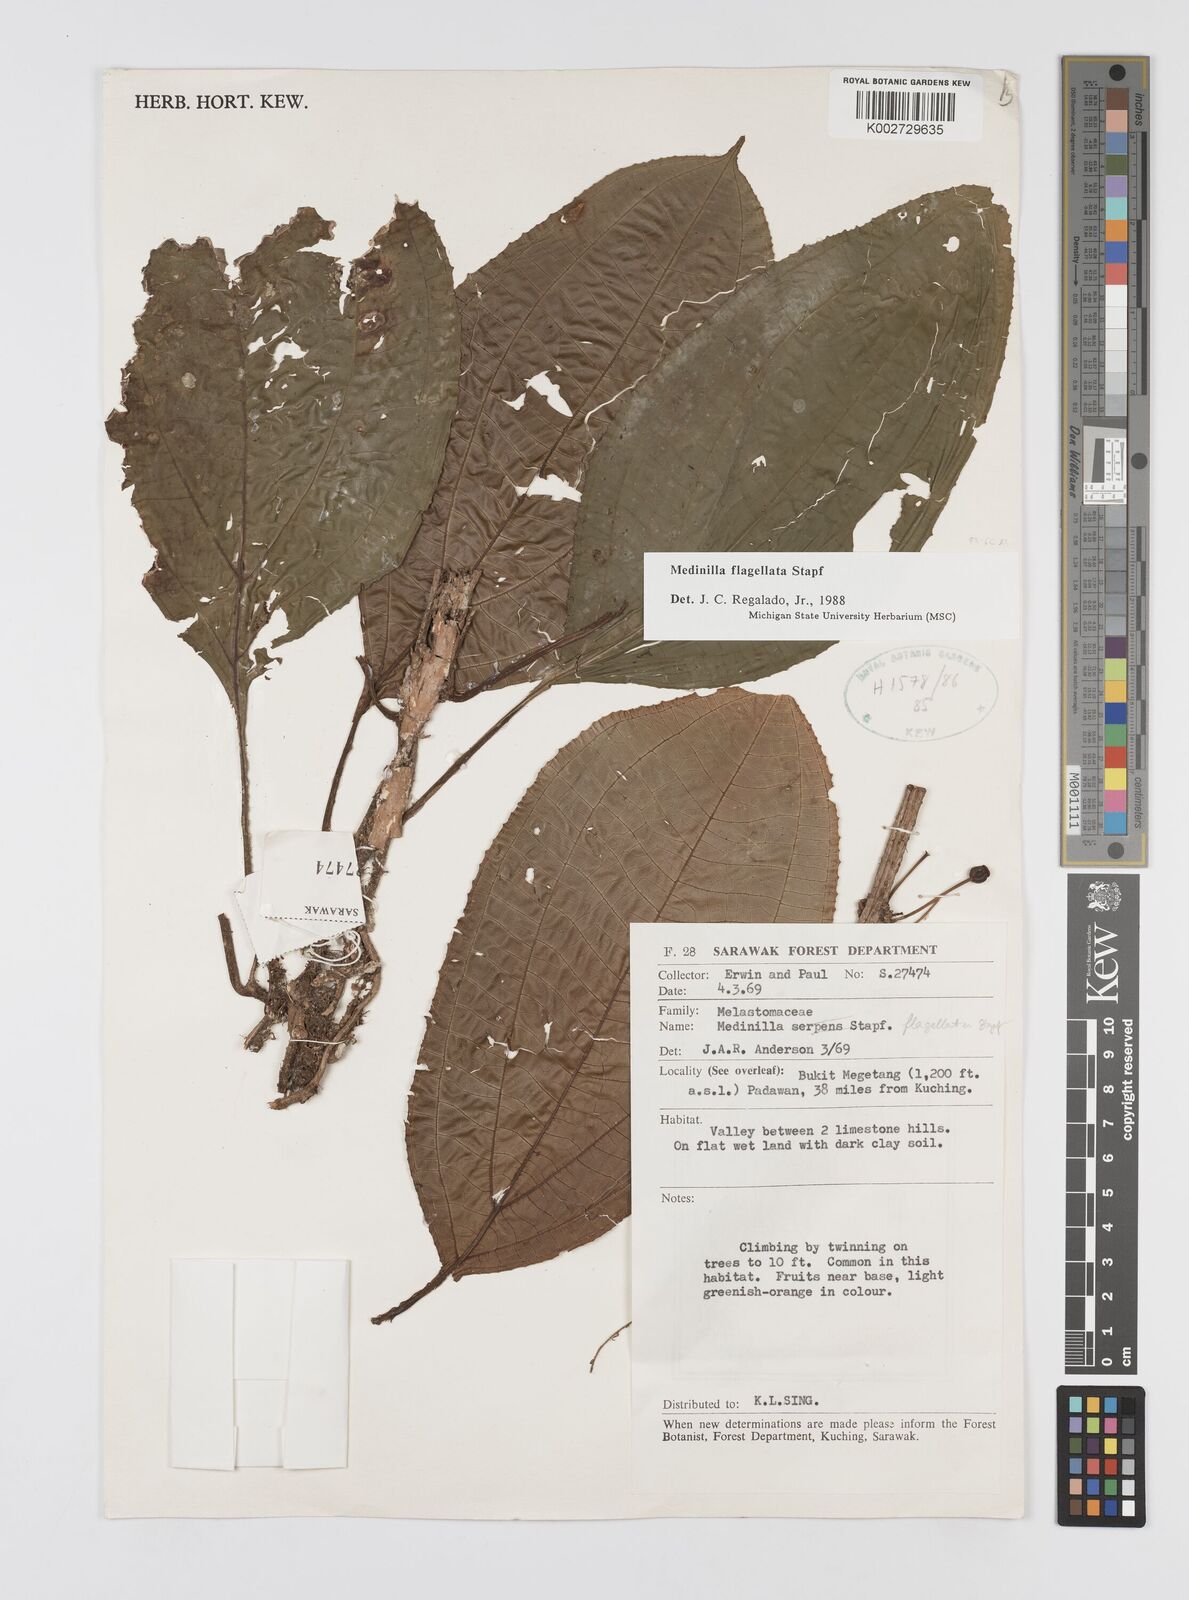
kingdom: Plantae
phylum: Tracheophyta
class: Magnoliopsida
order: Myrtales
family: Melastomataceae
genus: Heteroblemma
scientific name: Heteroblemma flagellatum
